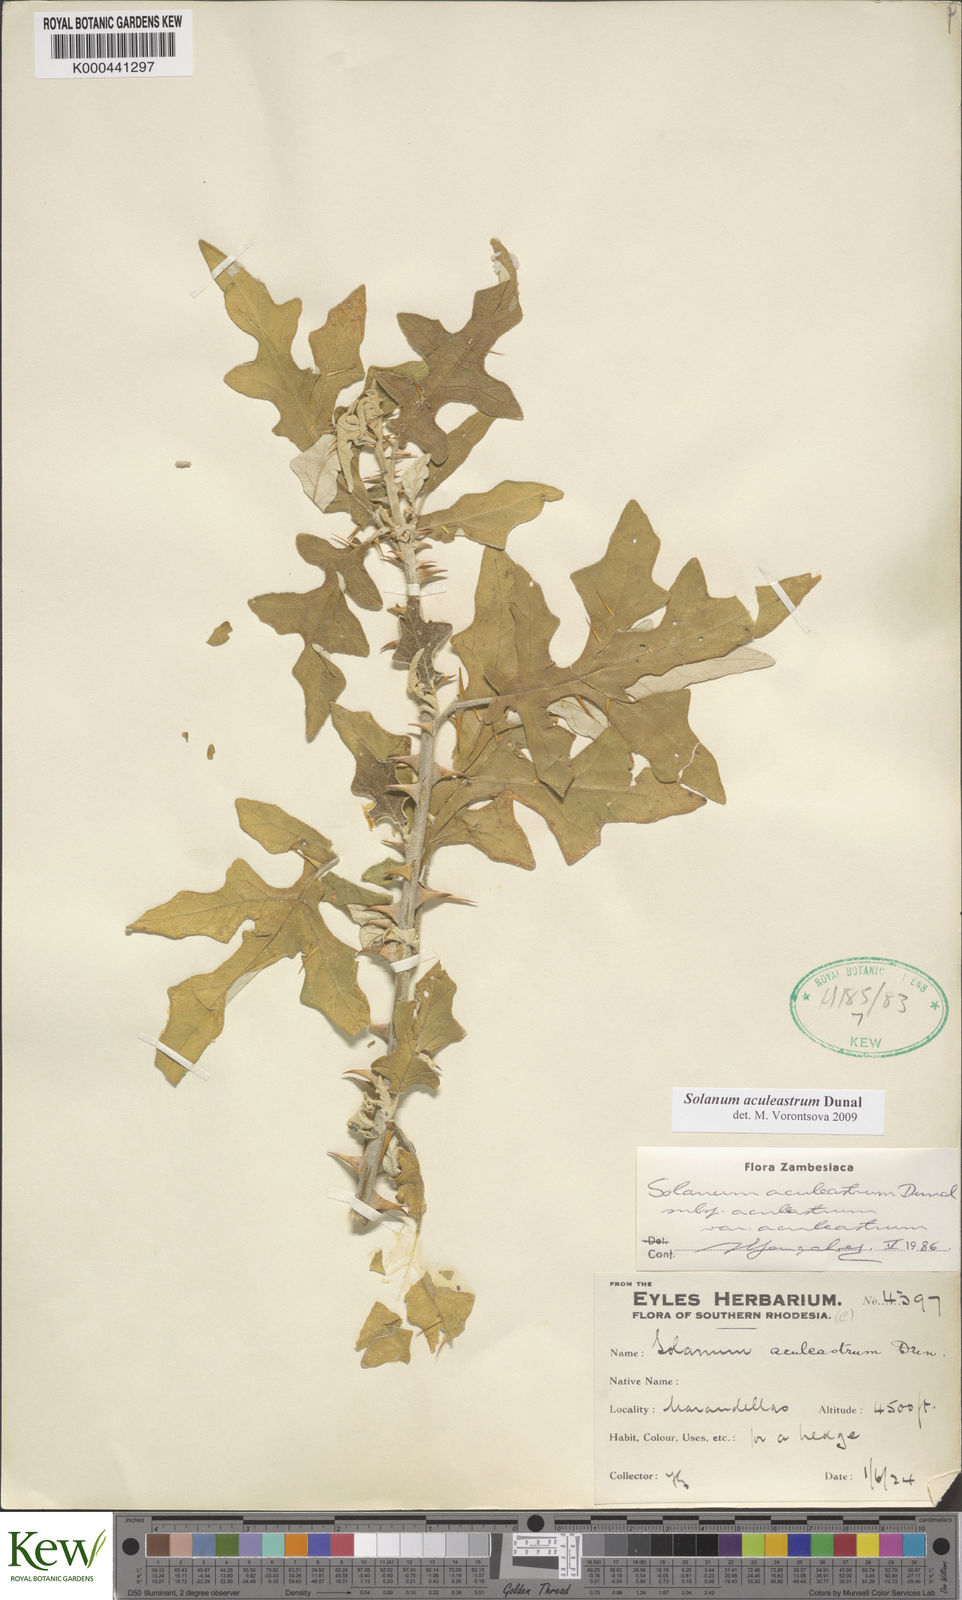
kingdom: Plantae
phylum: Tracheophyta
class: Magnoliopsida
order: Solanales
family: Solanaceae
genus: Solanum
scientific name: Solanum aculeastrum
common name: Goat bitter-apple
